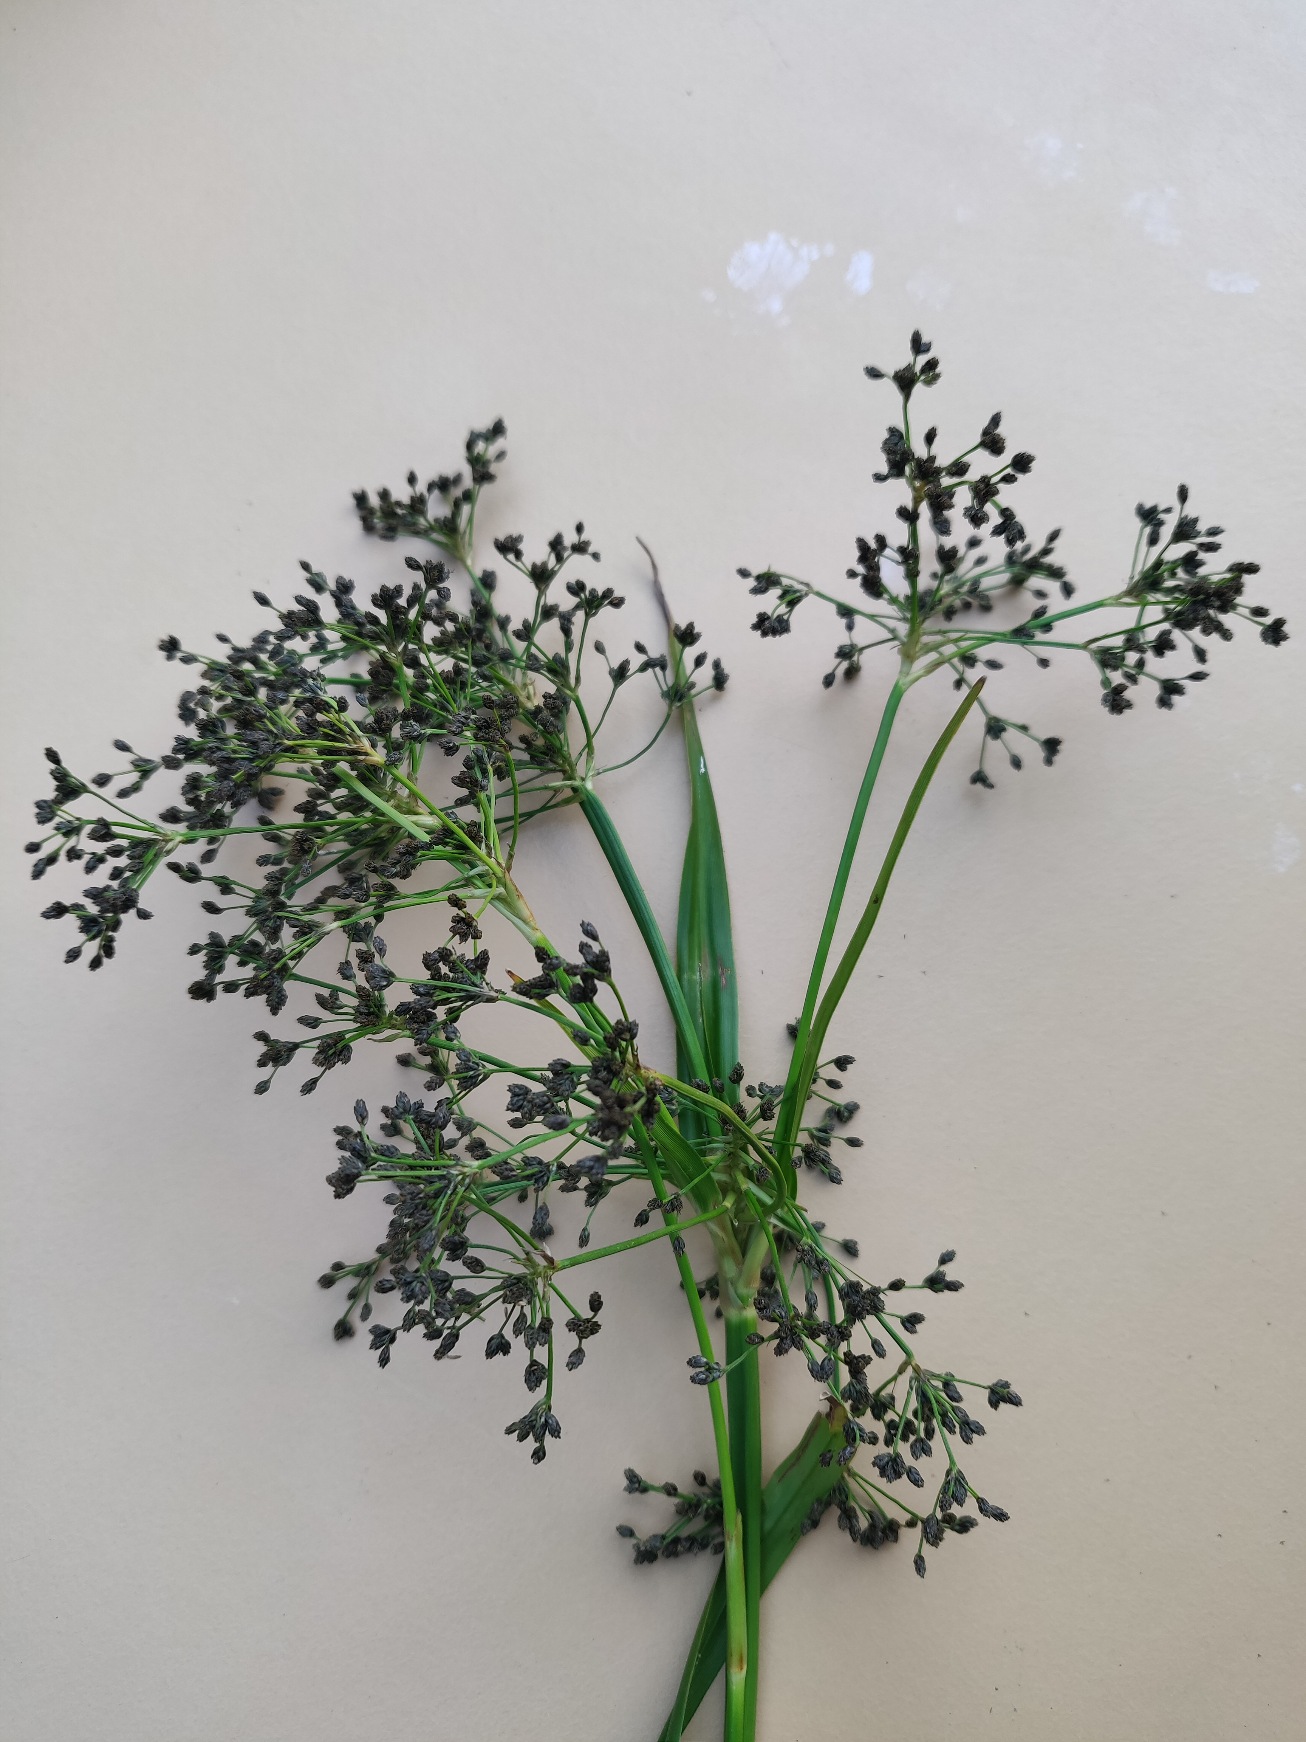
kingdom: Plantae
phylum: Tracheophyta
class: Liliopsida
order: Poales
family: Cyperaceae
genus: Scirpus
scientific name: Scirpus sylvaticus
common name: Skov-kogleaks
